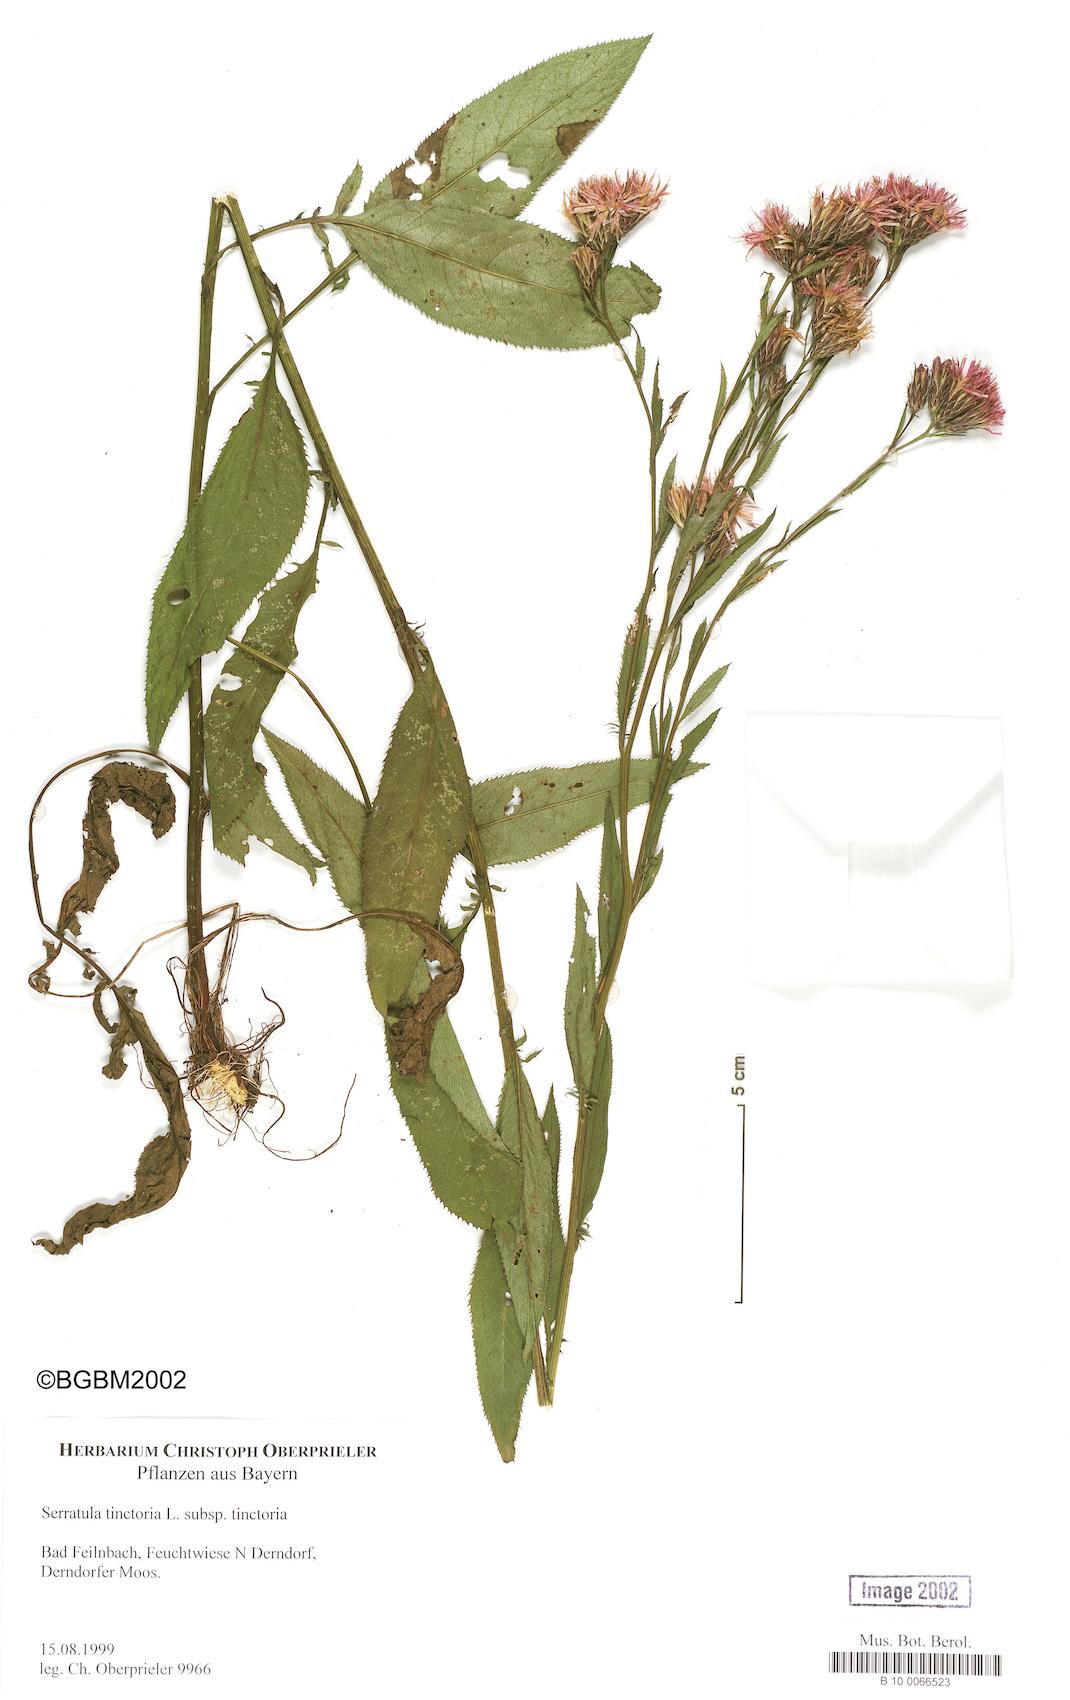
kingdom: Plantae
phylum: Tracheophyta
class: Magnoliopsida
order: Asterales
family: Asteraceae
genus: Serratula
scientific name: Serratula tinctoria
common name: Saw-wort
